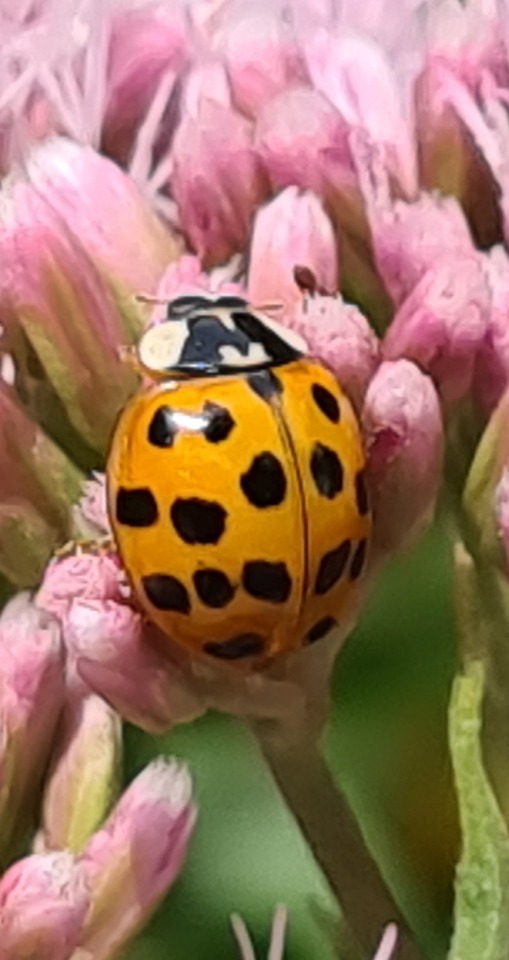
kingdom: Animalia
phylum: Arthropoda
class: Insecta
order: Coleoptera
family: Coccinellidae
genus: Harmonia
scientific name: Harmonia axyridis
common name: Harlekinmariehøne
